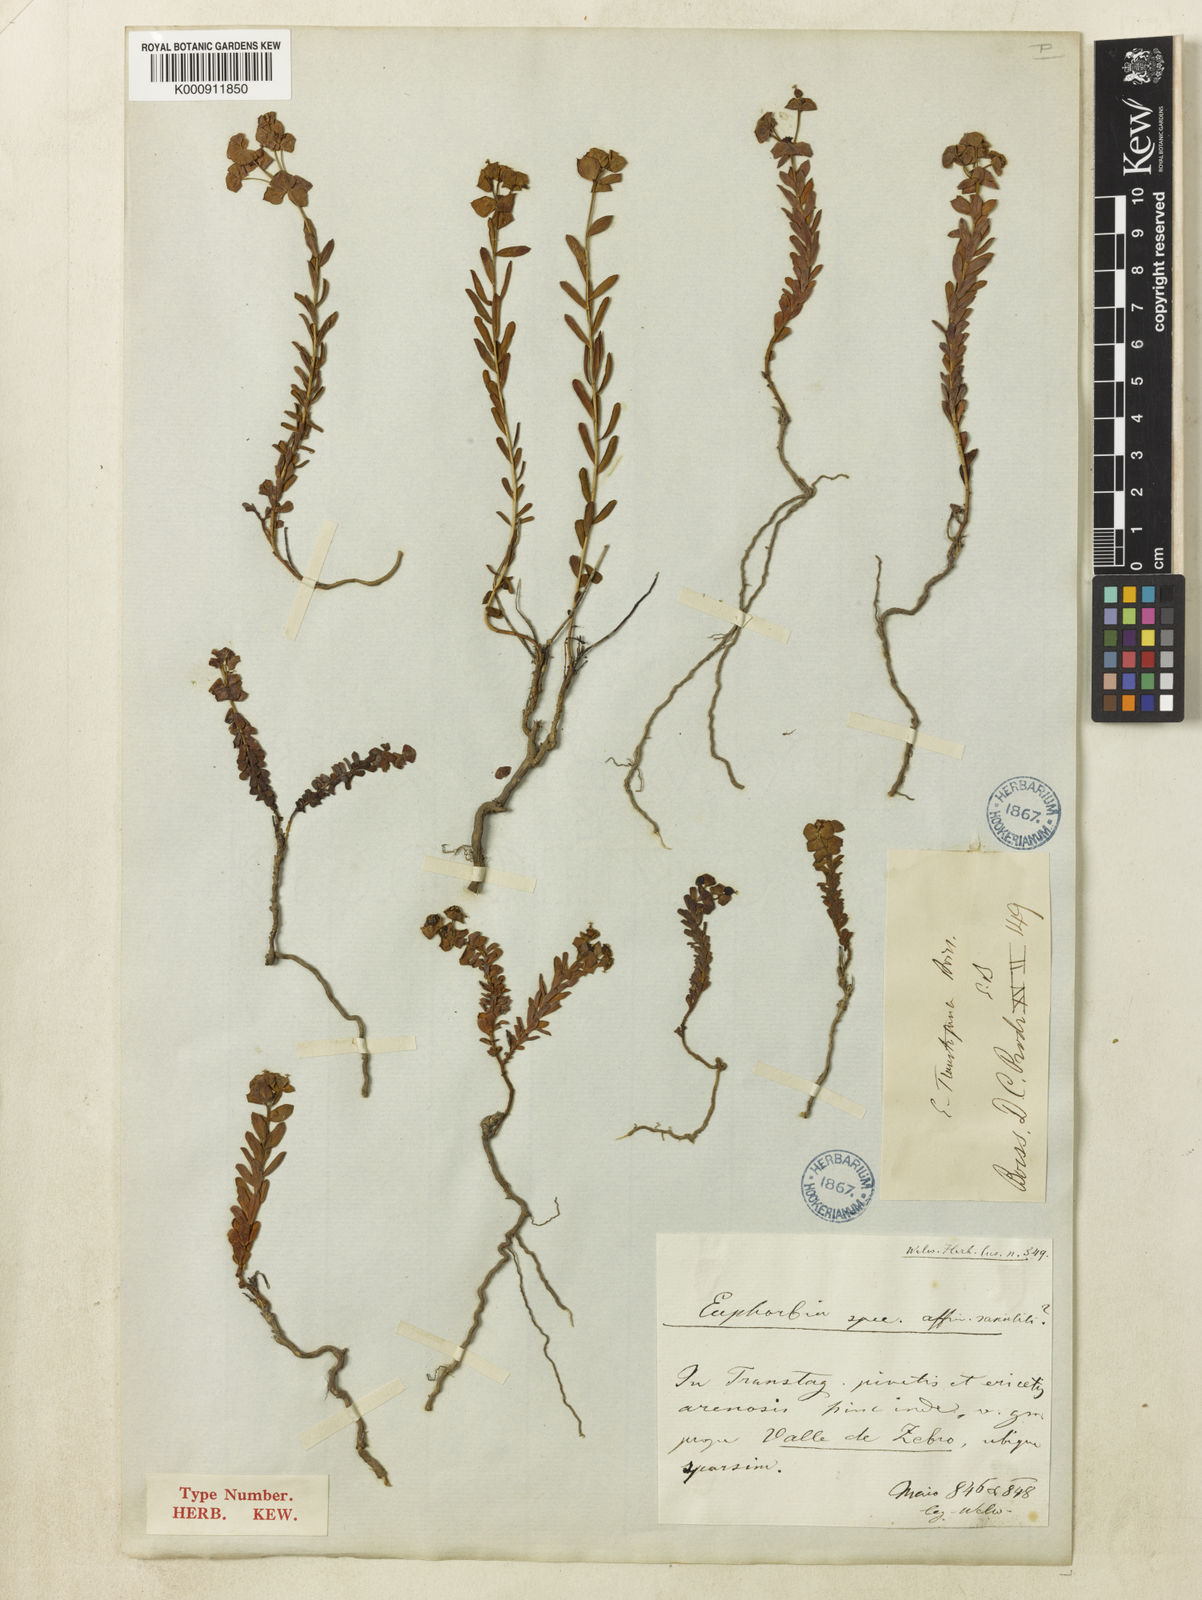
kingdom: Plantae
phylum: Tracheophyta
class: Magnoliopsida
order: Malpighiales
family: Euphorbiaceae
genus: Euphorbia
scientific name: Euphorbia transtagana
